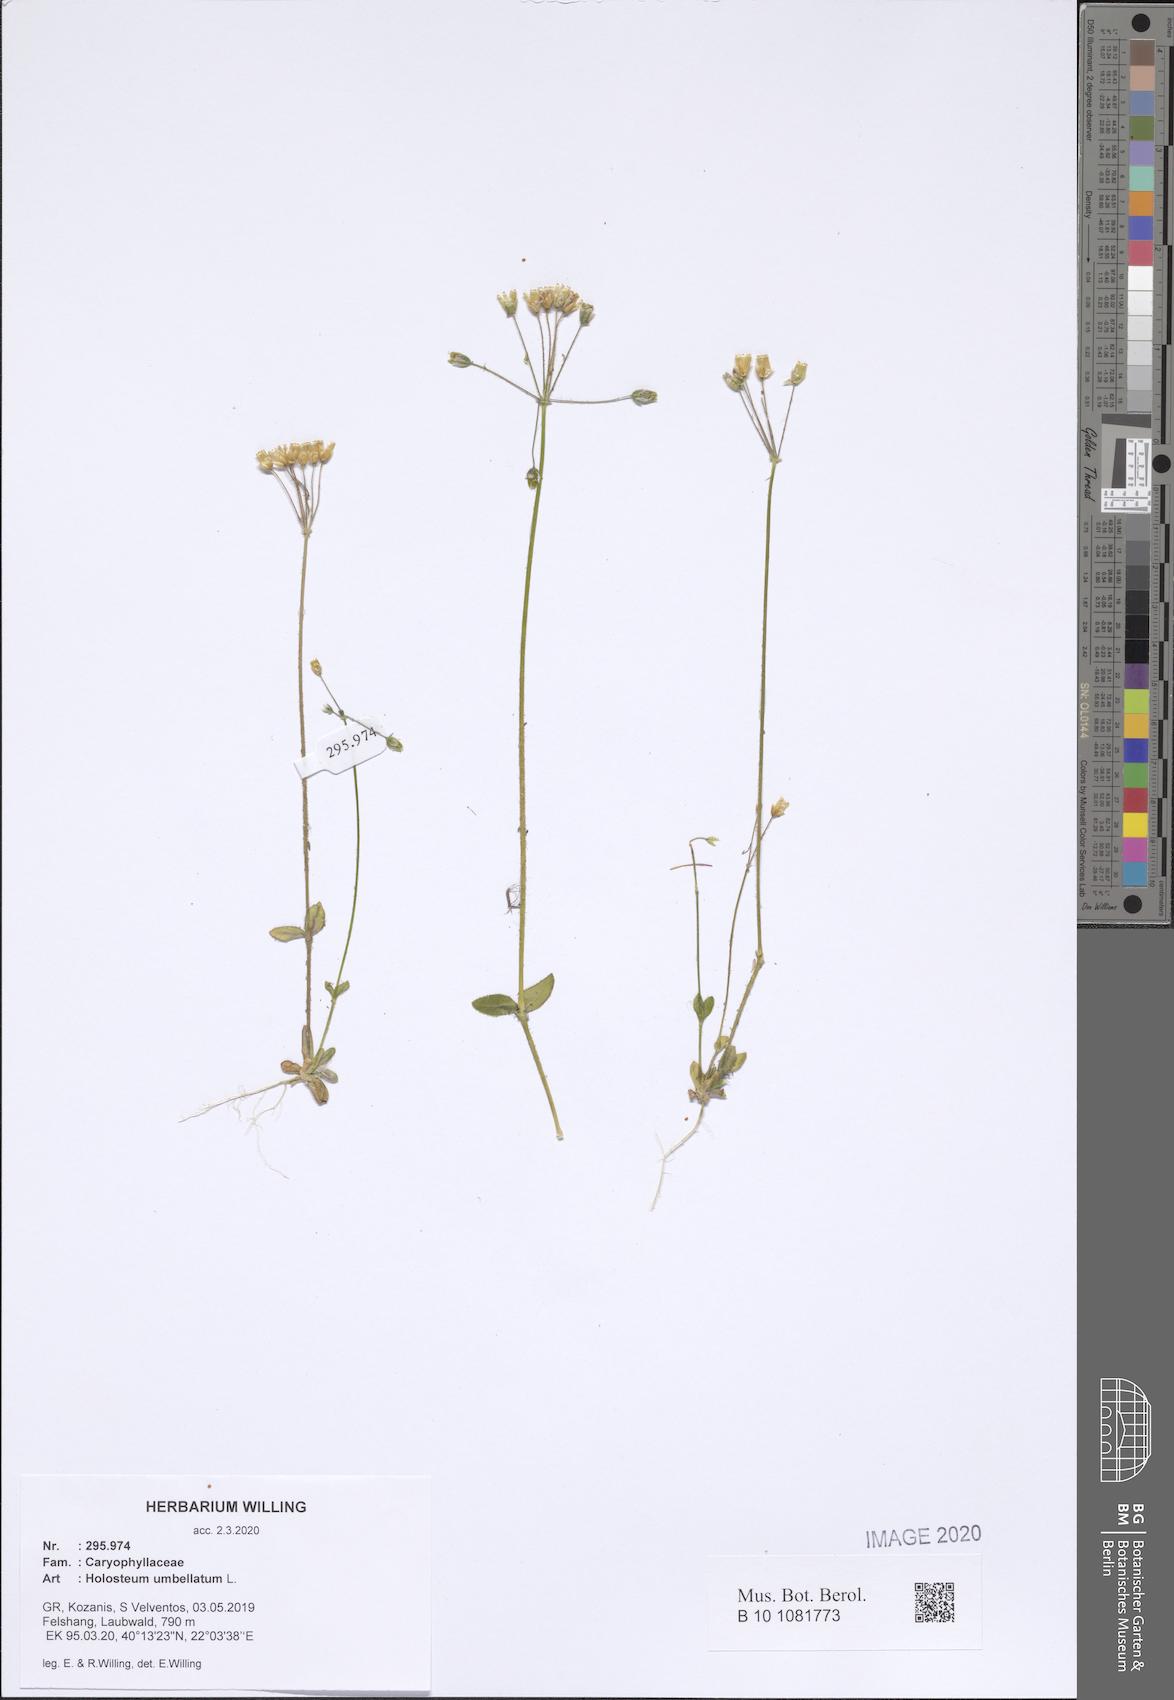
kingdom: Plantae
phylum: Tracheophyta
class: Magnoliopsida
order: Caryophyllales
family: Caryophyllaceae
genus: Holosteum
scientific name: Holosteum umbellatum
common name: Jagged chickweed
